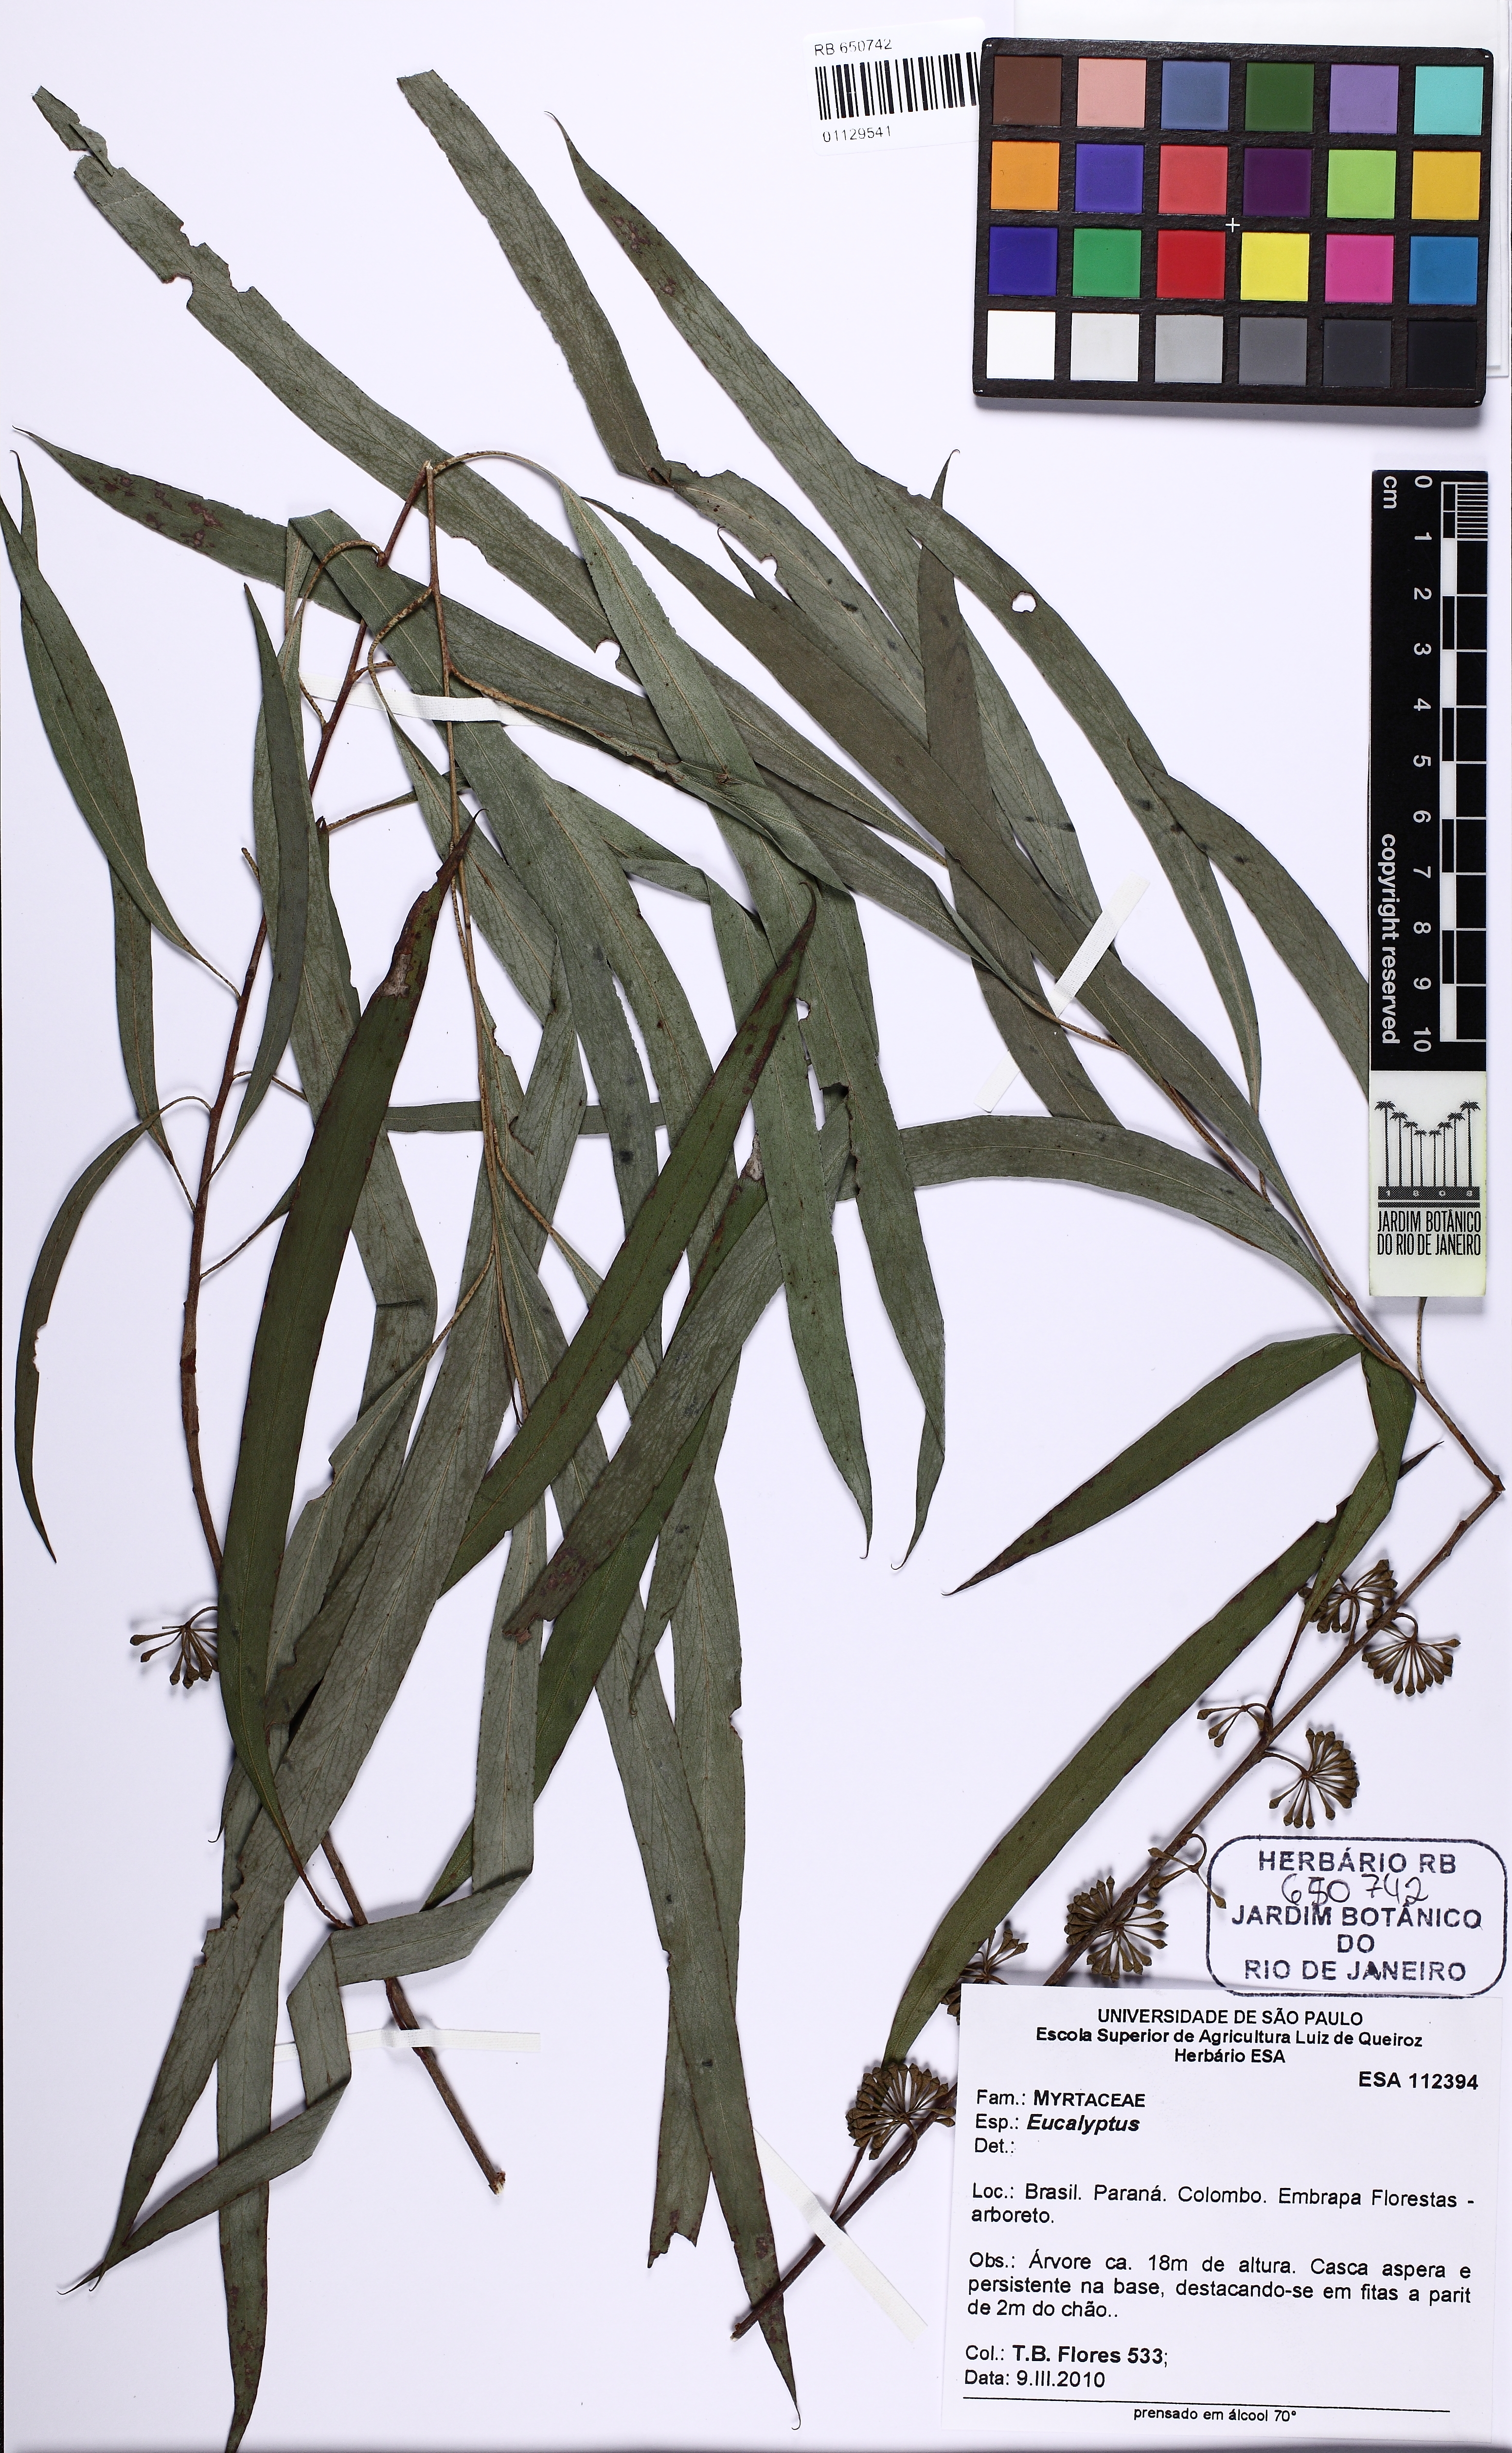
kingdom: Plantae
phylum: Tracheophyta
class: Magnoliopsida
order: Myrtales
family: Myrtaceae
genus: Eucalyptus
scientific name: Eucalyptus
